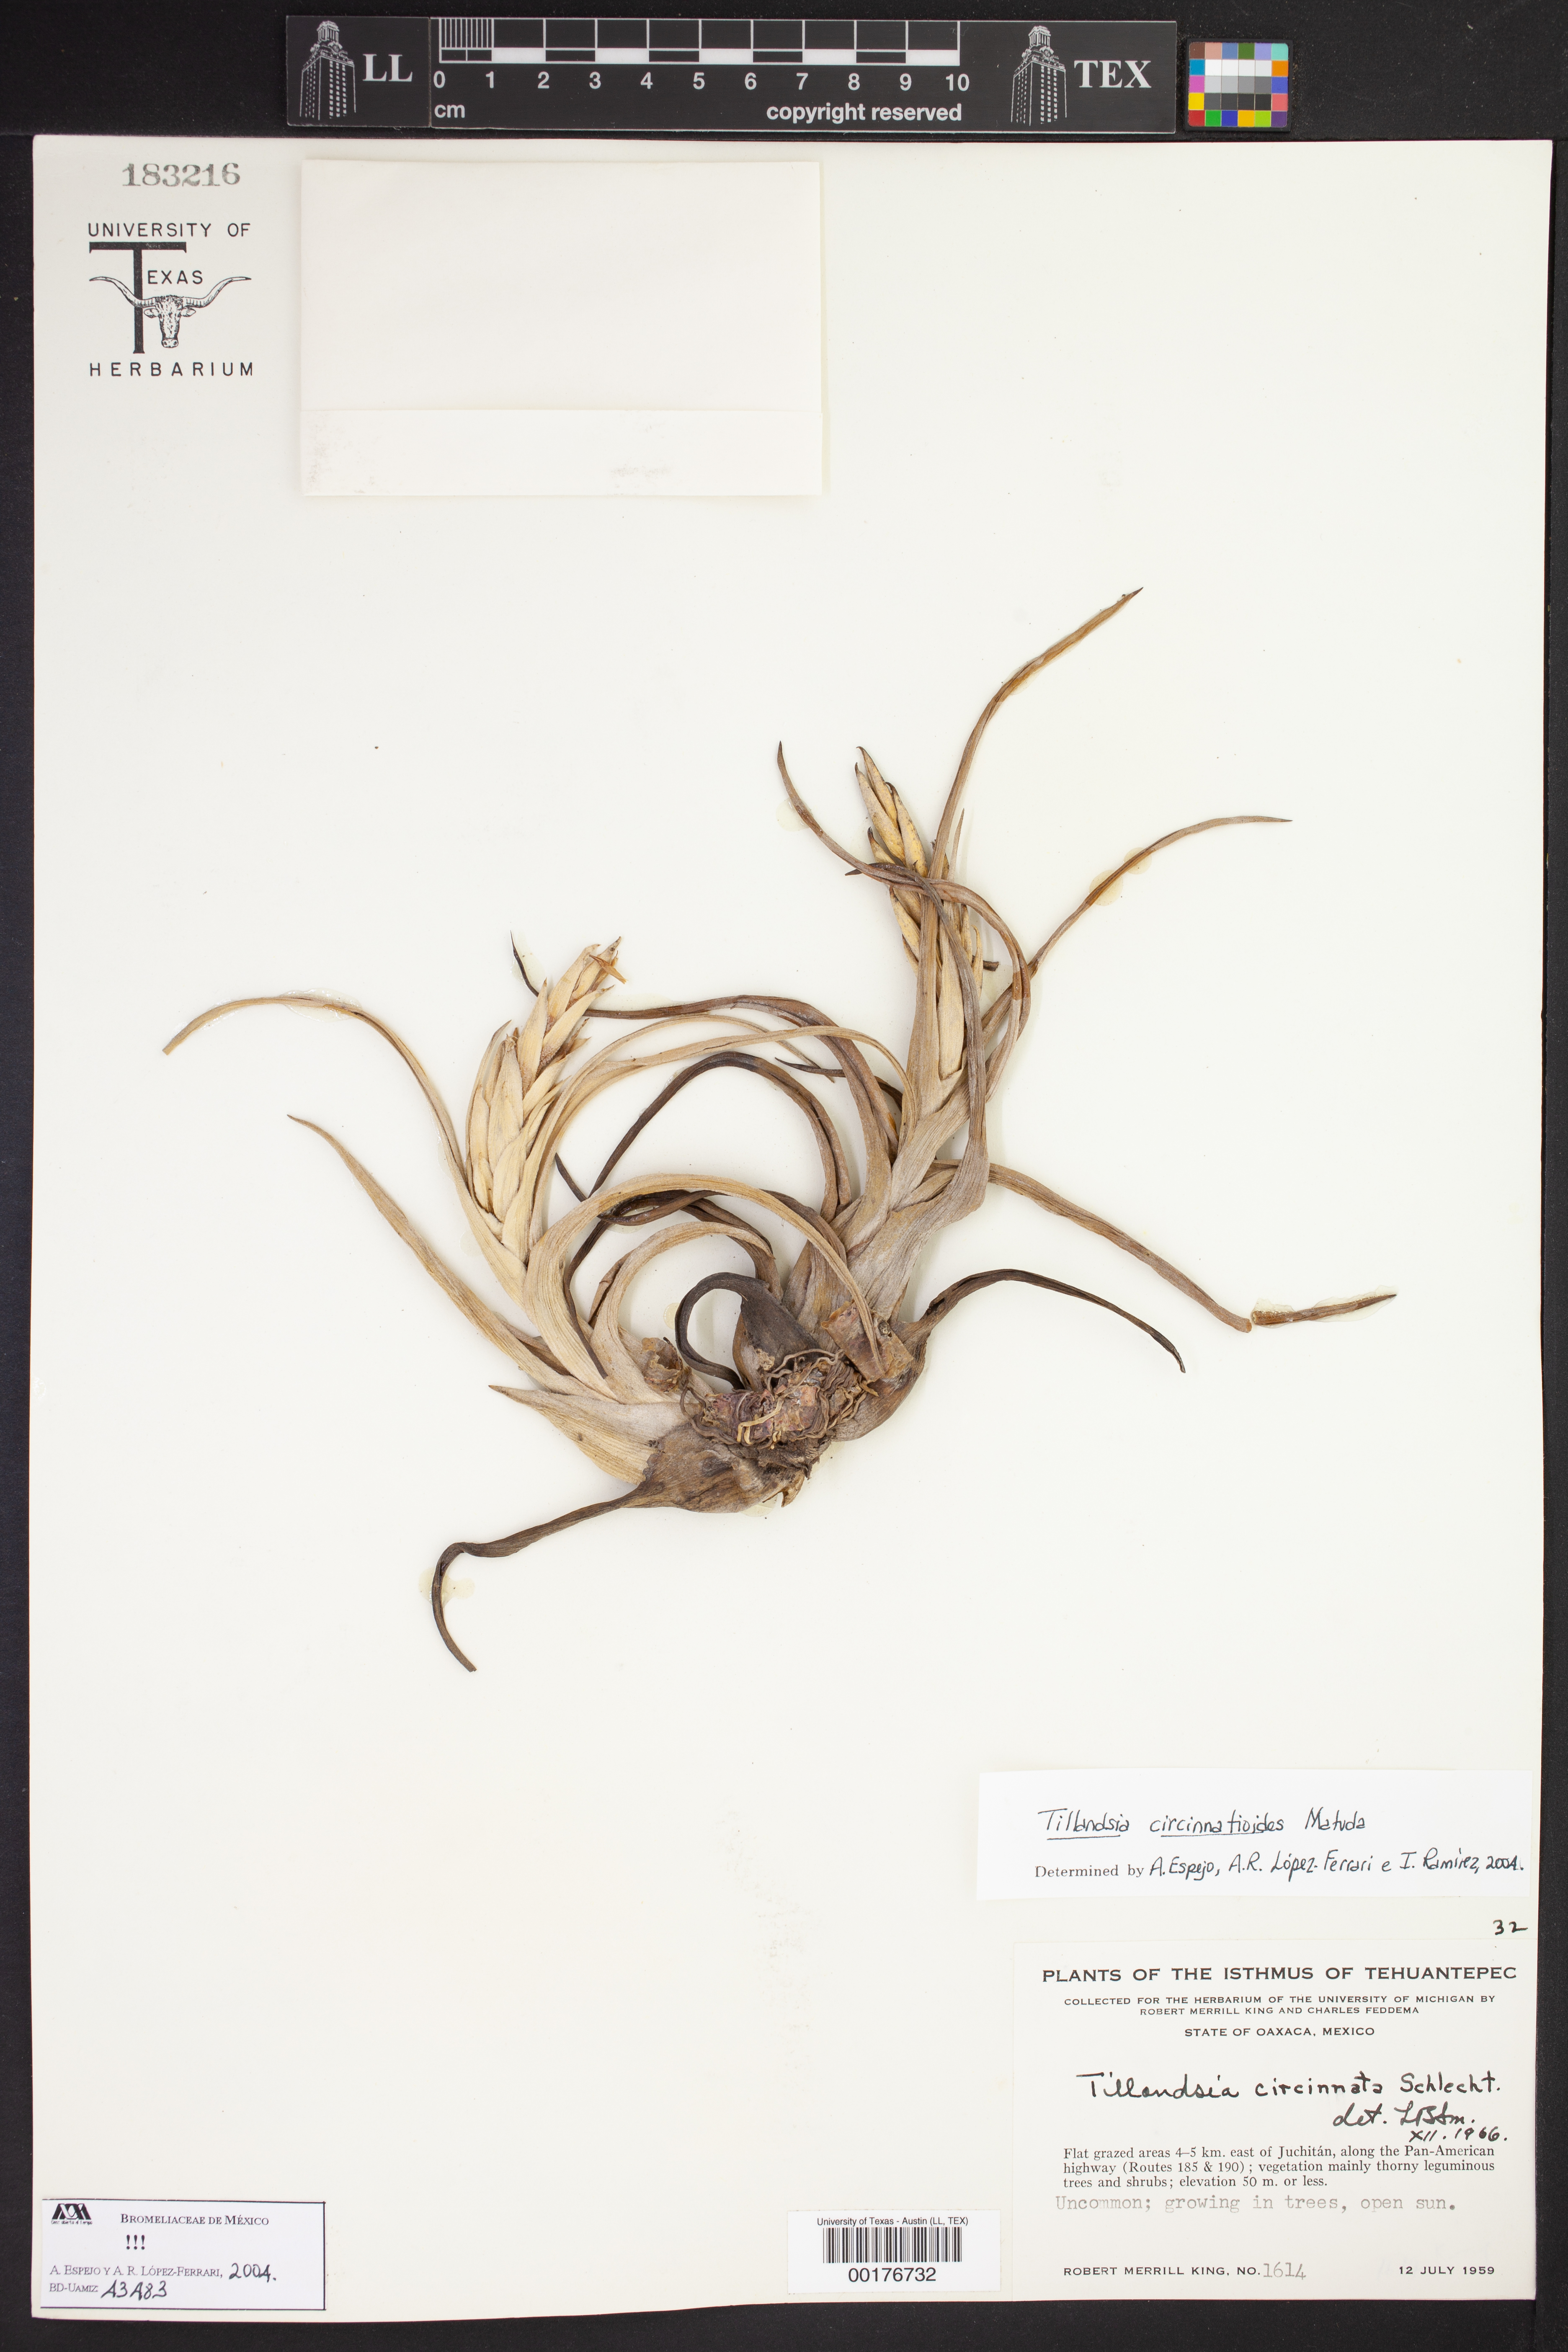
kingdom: Plantae
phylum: Tracheophyta
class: Liliopsida
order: Poales
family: Bromeliaceae
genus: Tillandsia
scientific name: Tillandsia streptophylla
